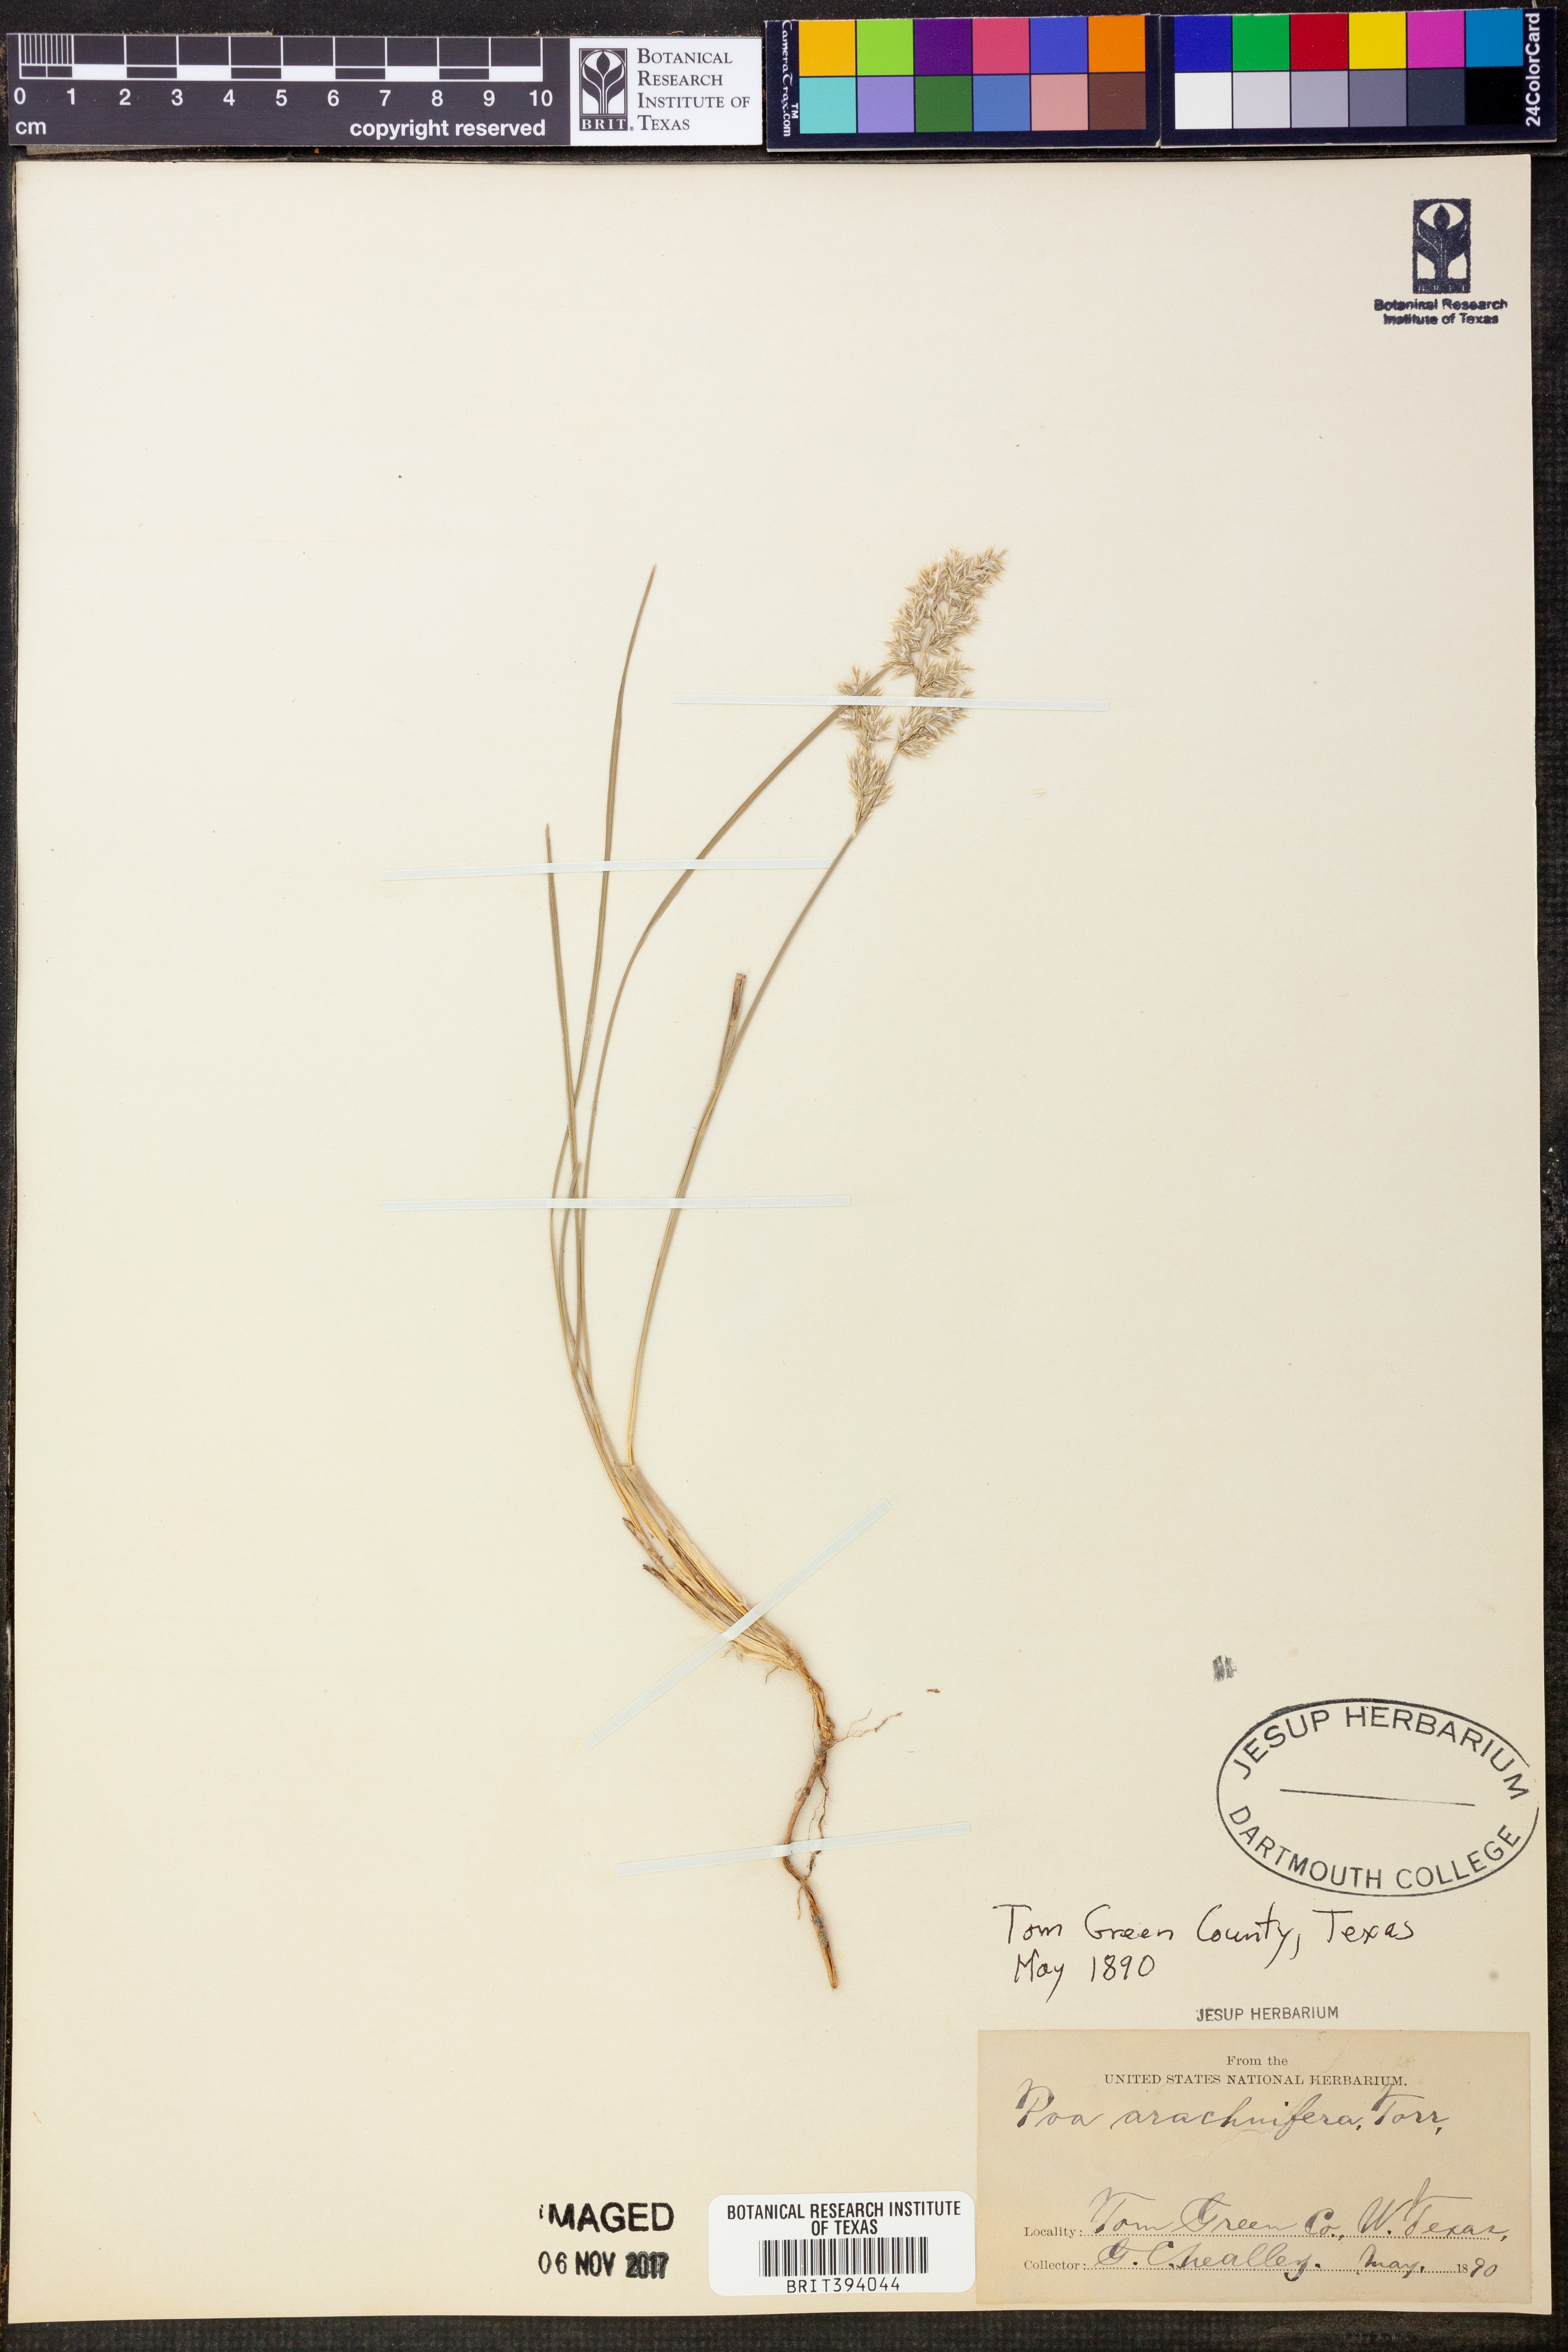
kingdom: Plantae
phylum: Tracheophyta
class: Liliopsida
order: Poales
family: Poaceae
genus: Poa
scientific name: Poa arachnifera
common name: Texas bluegrass
